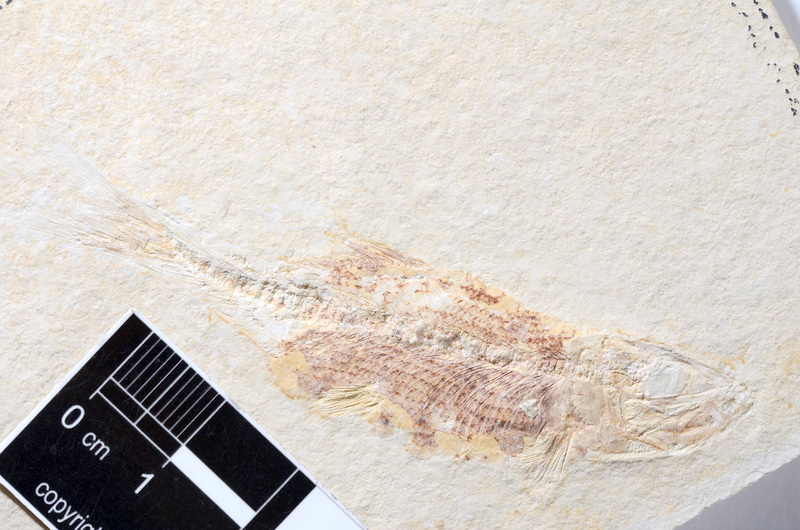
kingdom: Animalia
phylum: Chordata
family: Ascalaboidae
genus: Tharsis
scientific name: Tharsis dubius
